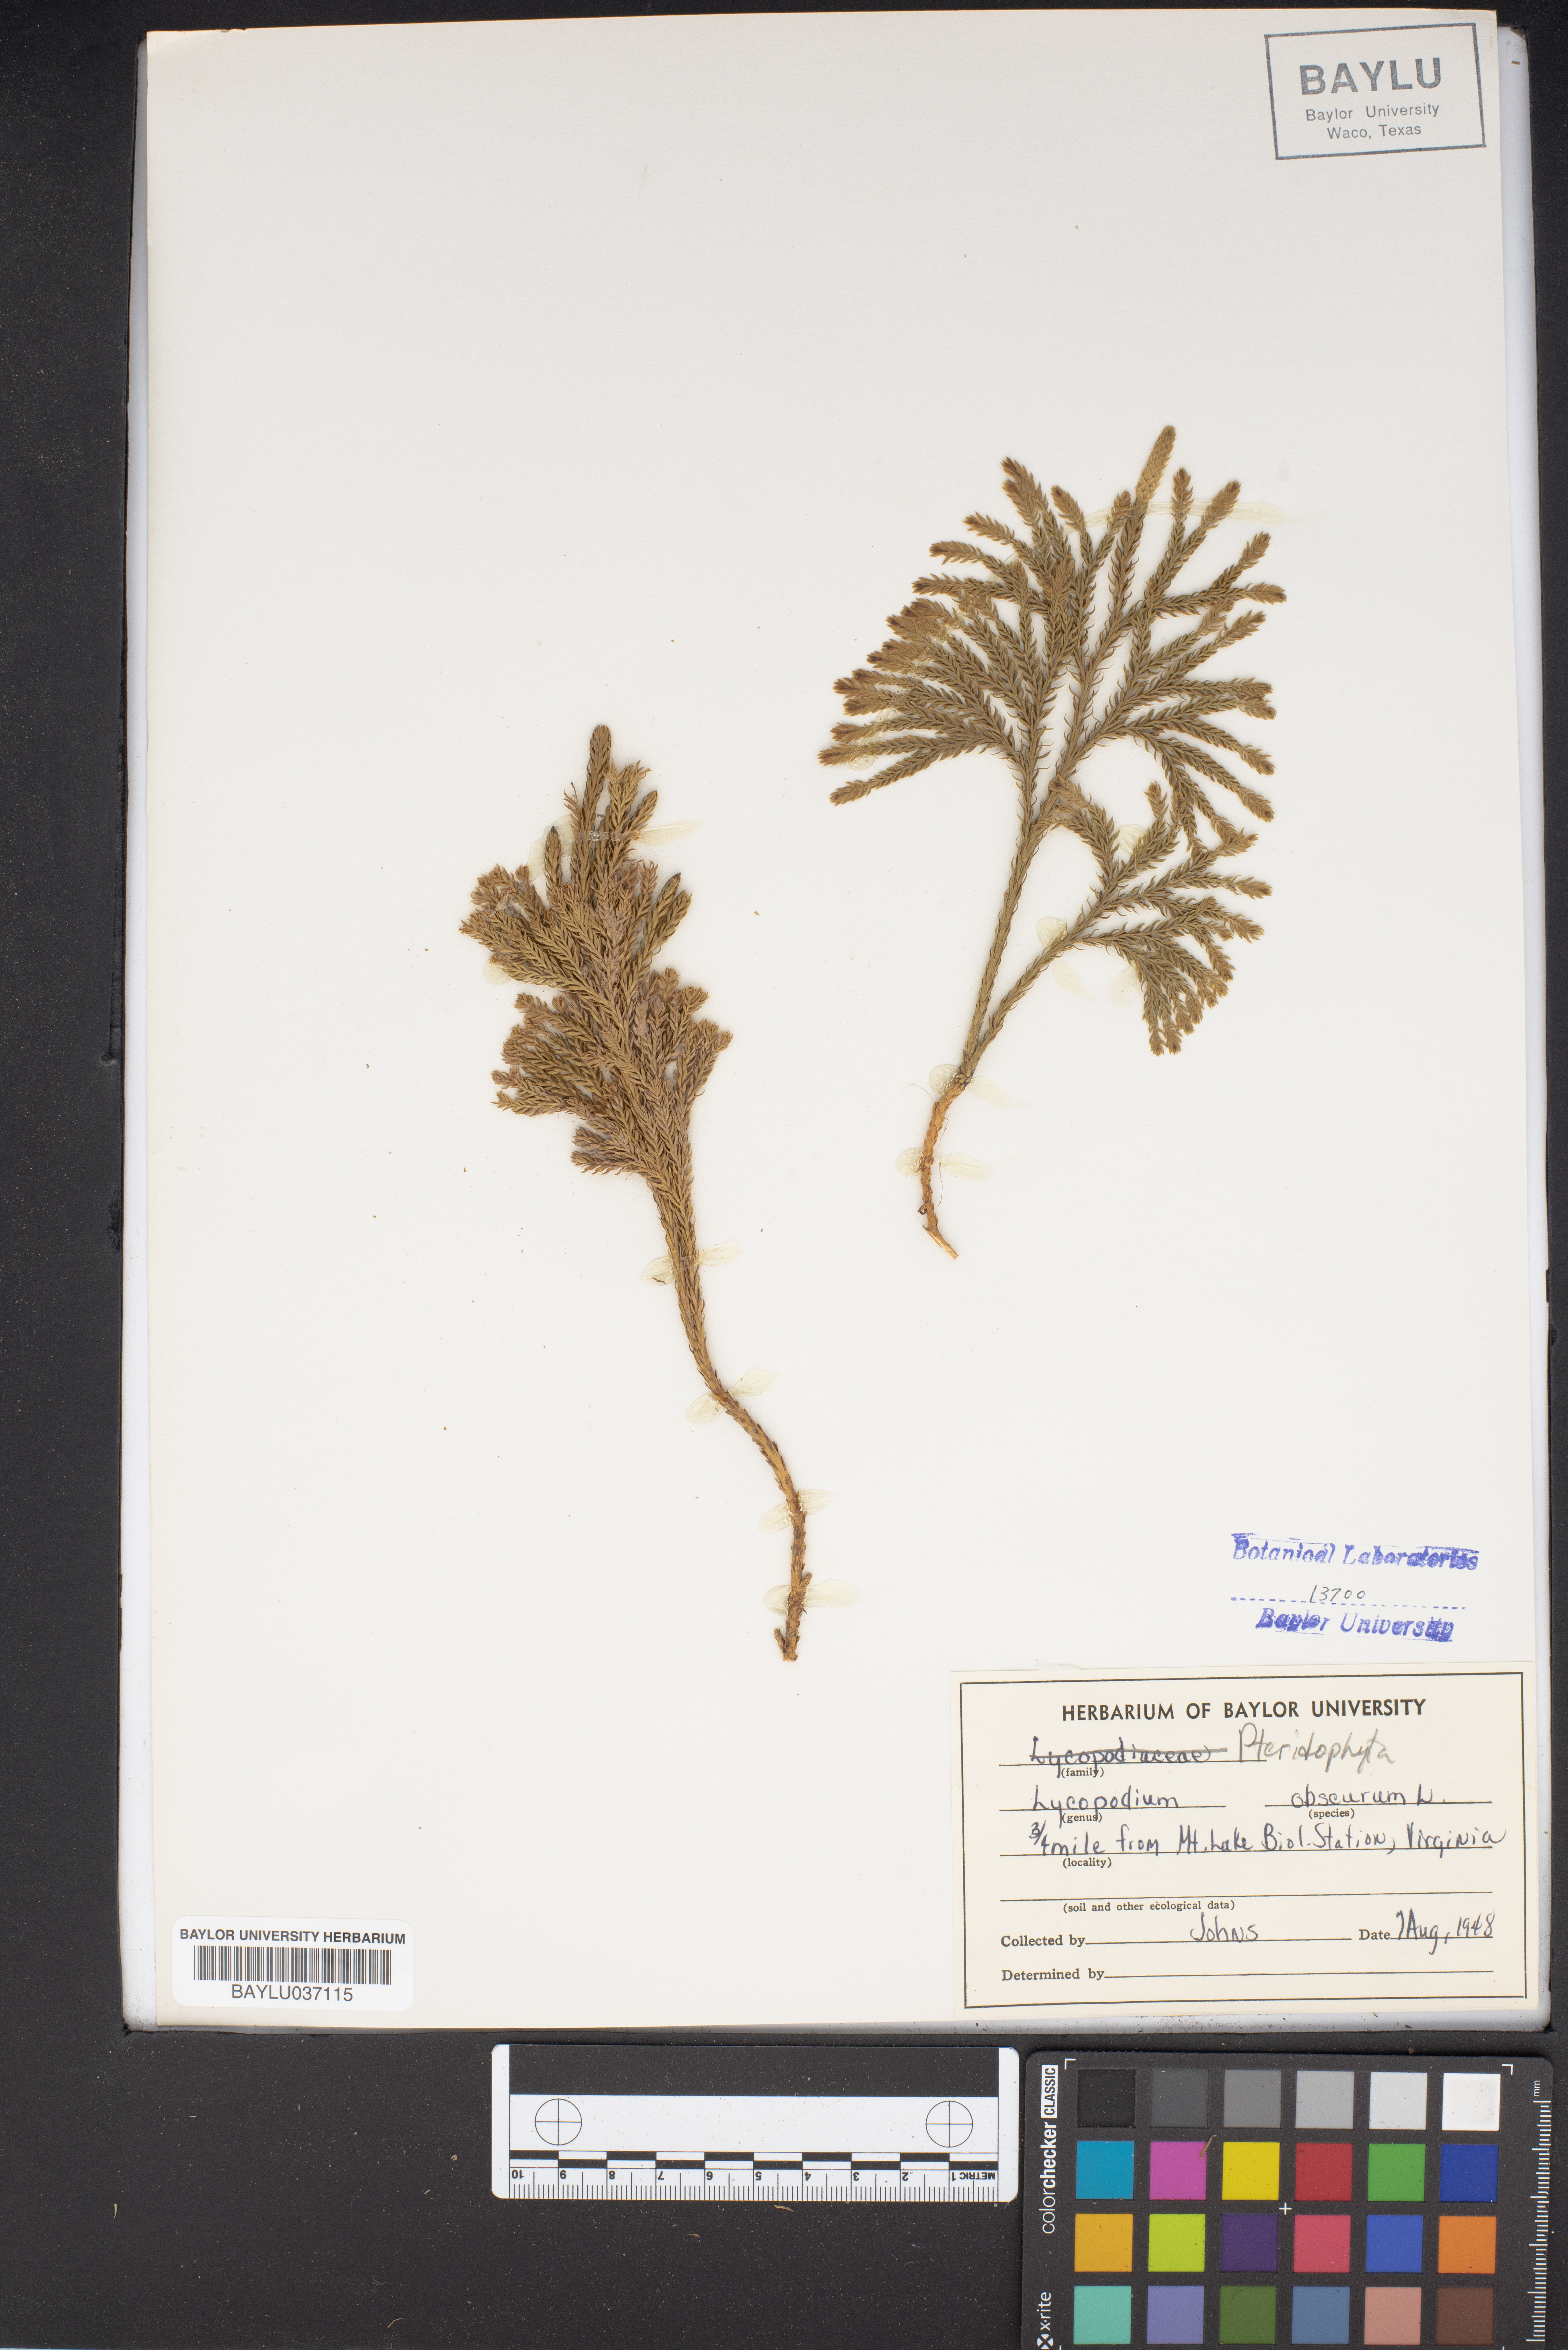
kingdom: Plantae
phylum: Tracheophyta
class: Lycopodiopsida
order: Lycopodiales
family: Lycopodiaceae
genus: Dendrolycopodium
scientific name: Dendrolycopodium obscurum
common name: Common ground-pine
